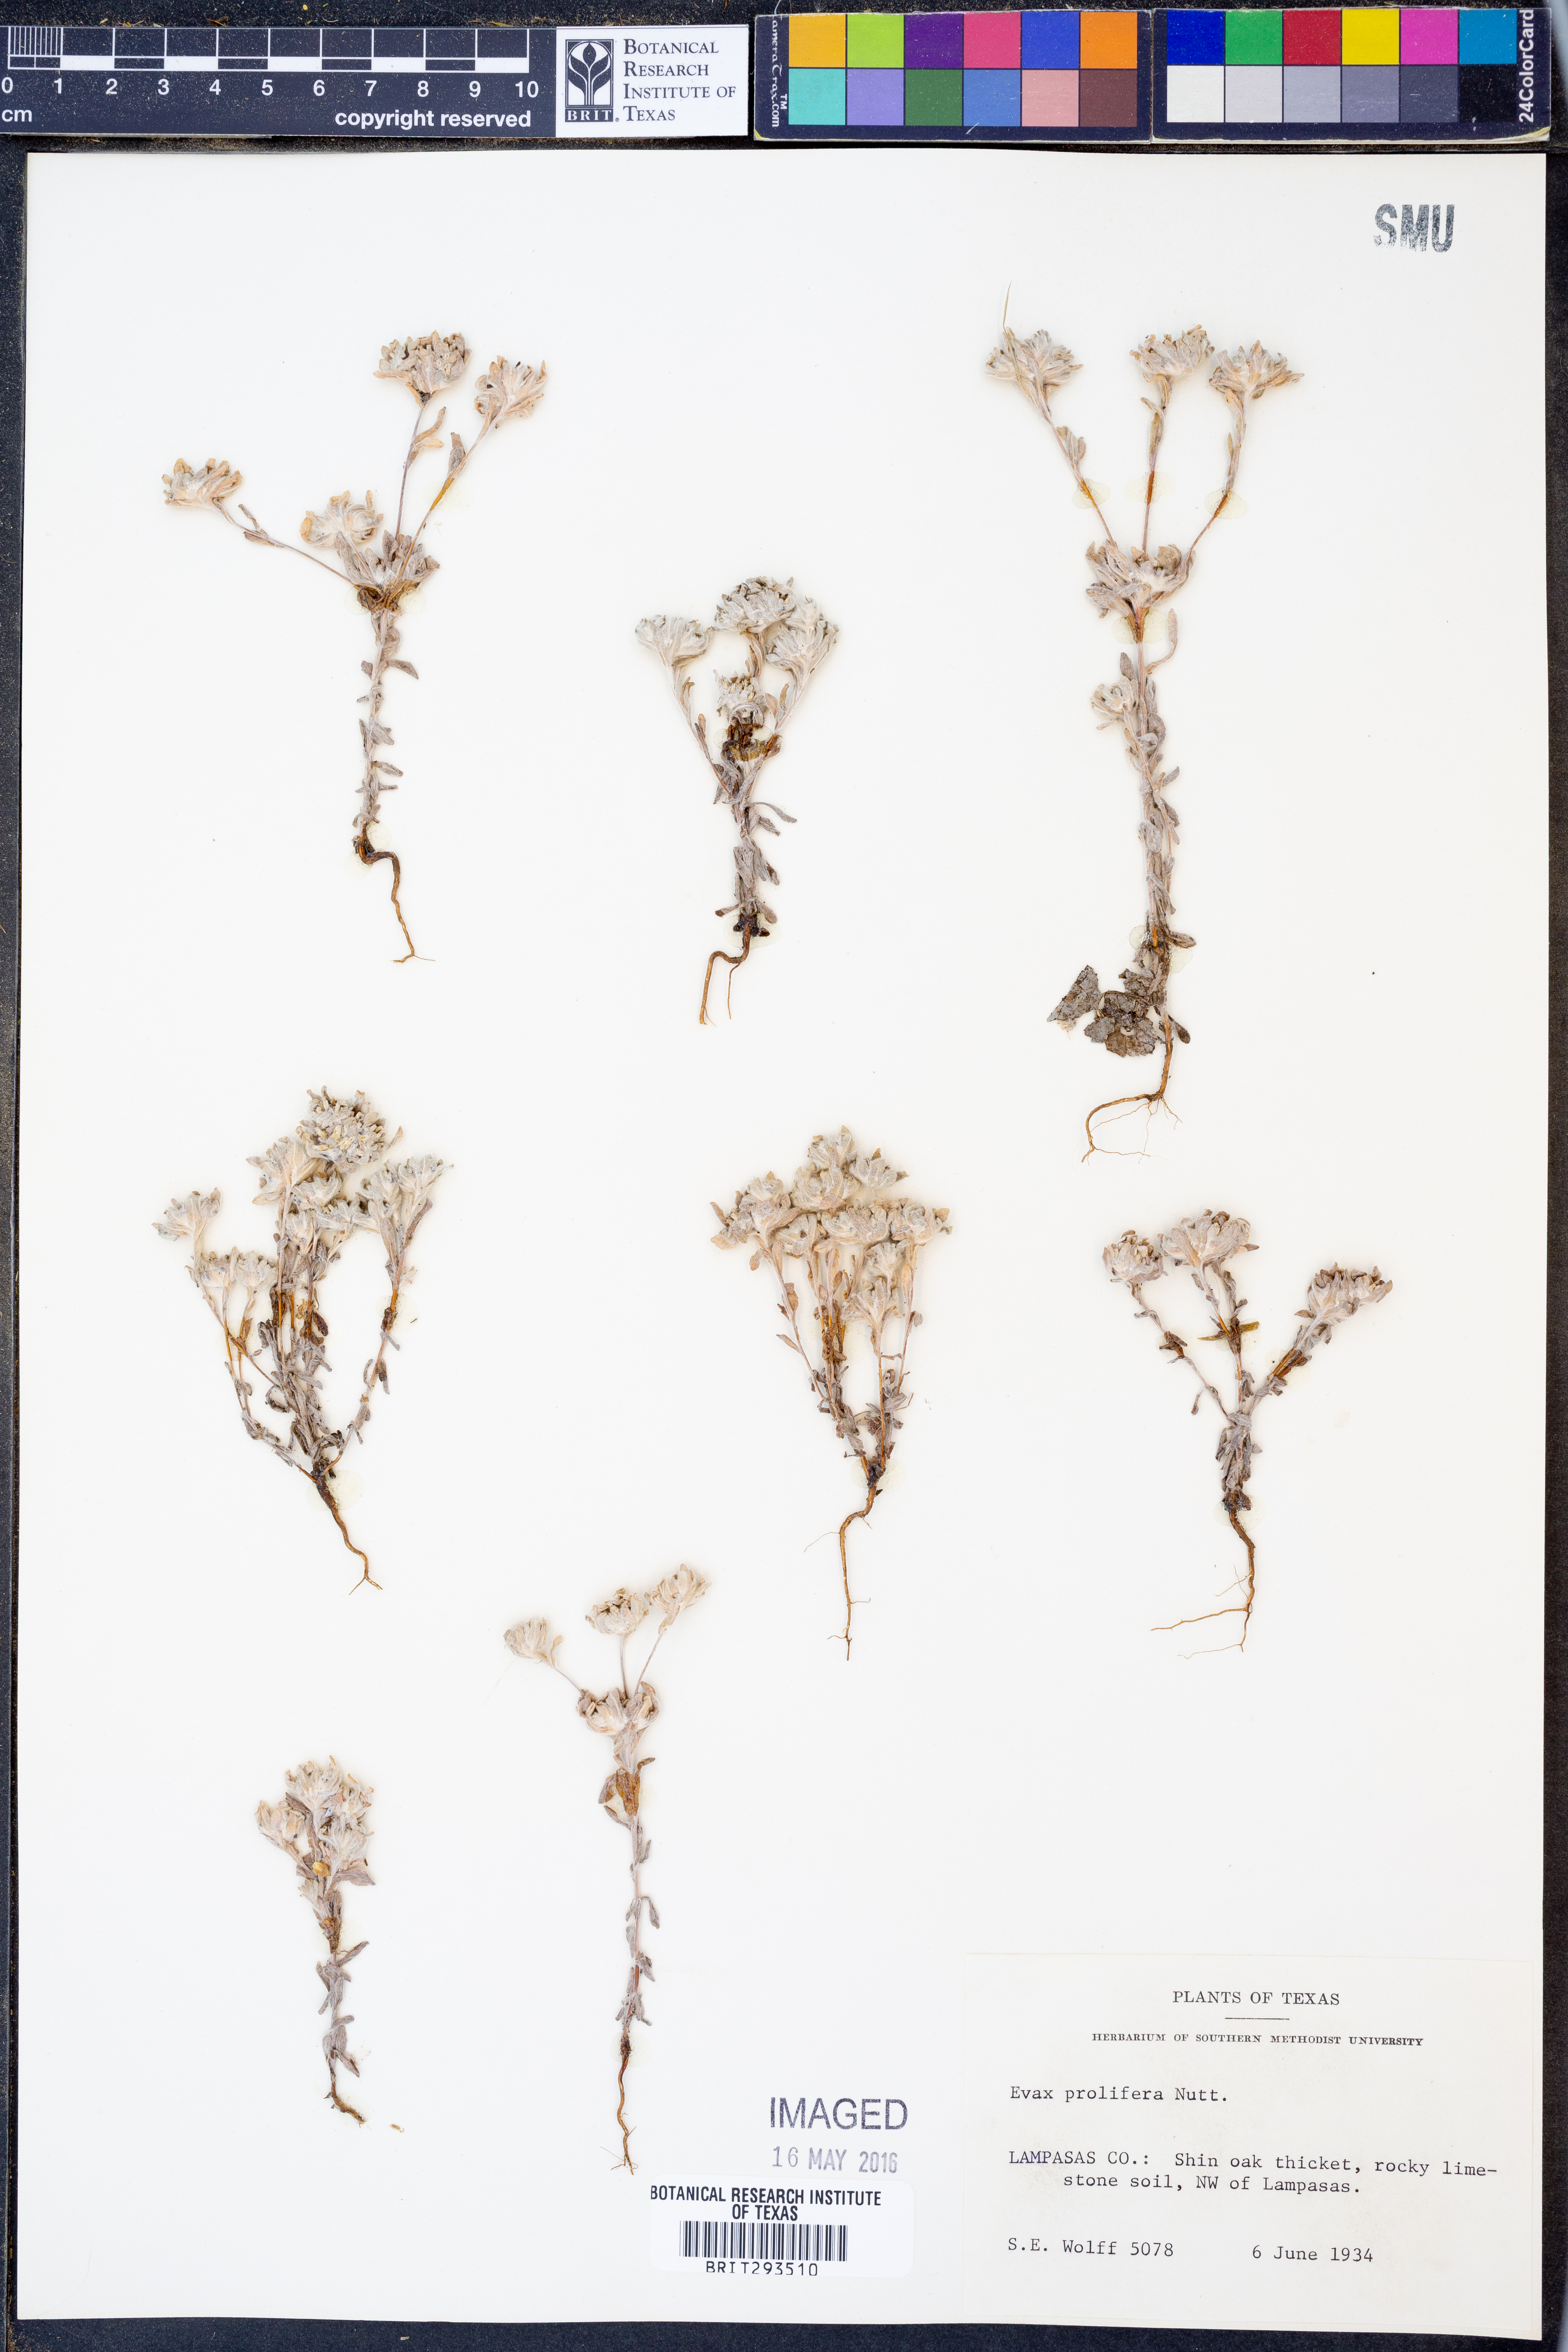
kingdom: Plantae
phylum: Tracheophyta
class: Magnoliopsida
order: Asterales
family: Asteraceae
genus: Diaperia
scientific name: Diaperia prolifera
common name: Big-head rabbit-tobacco
